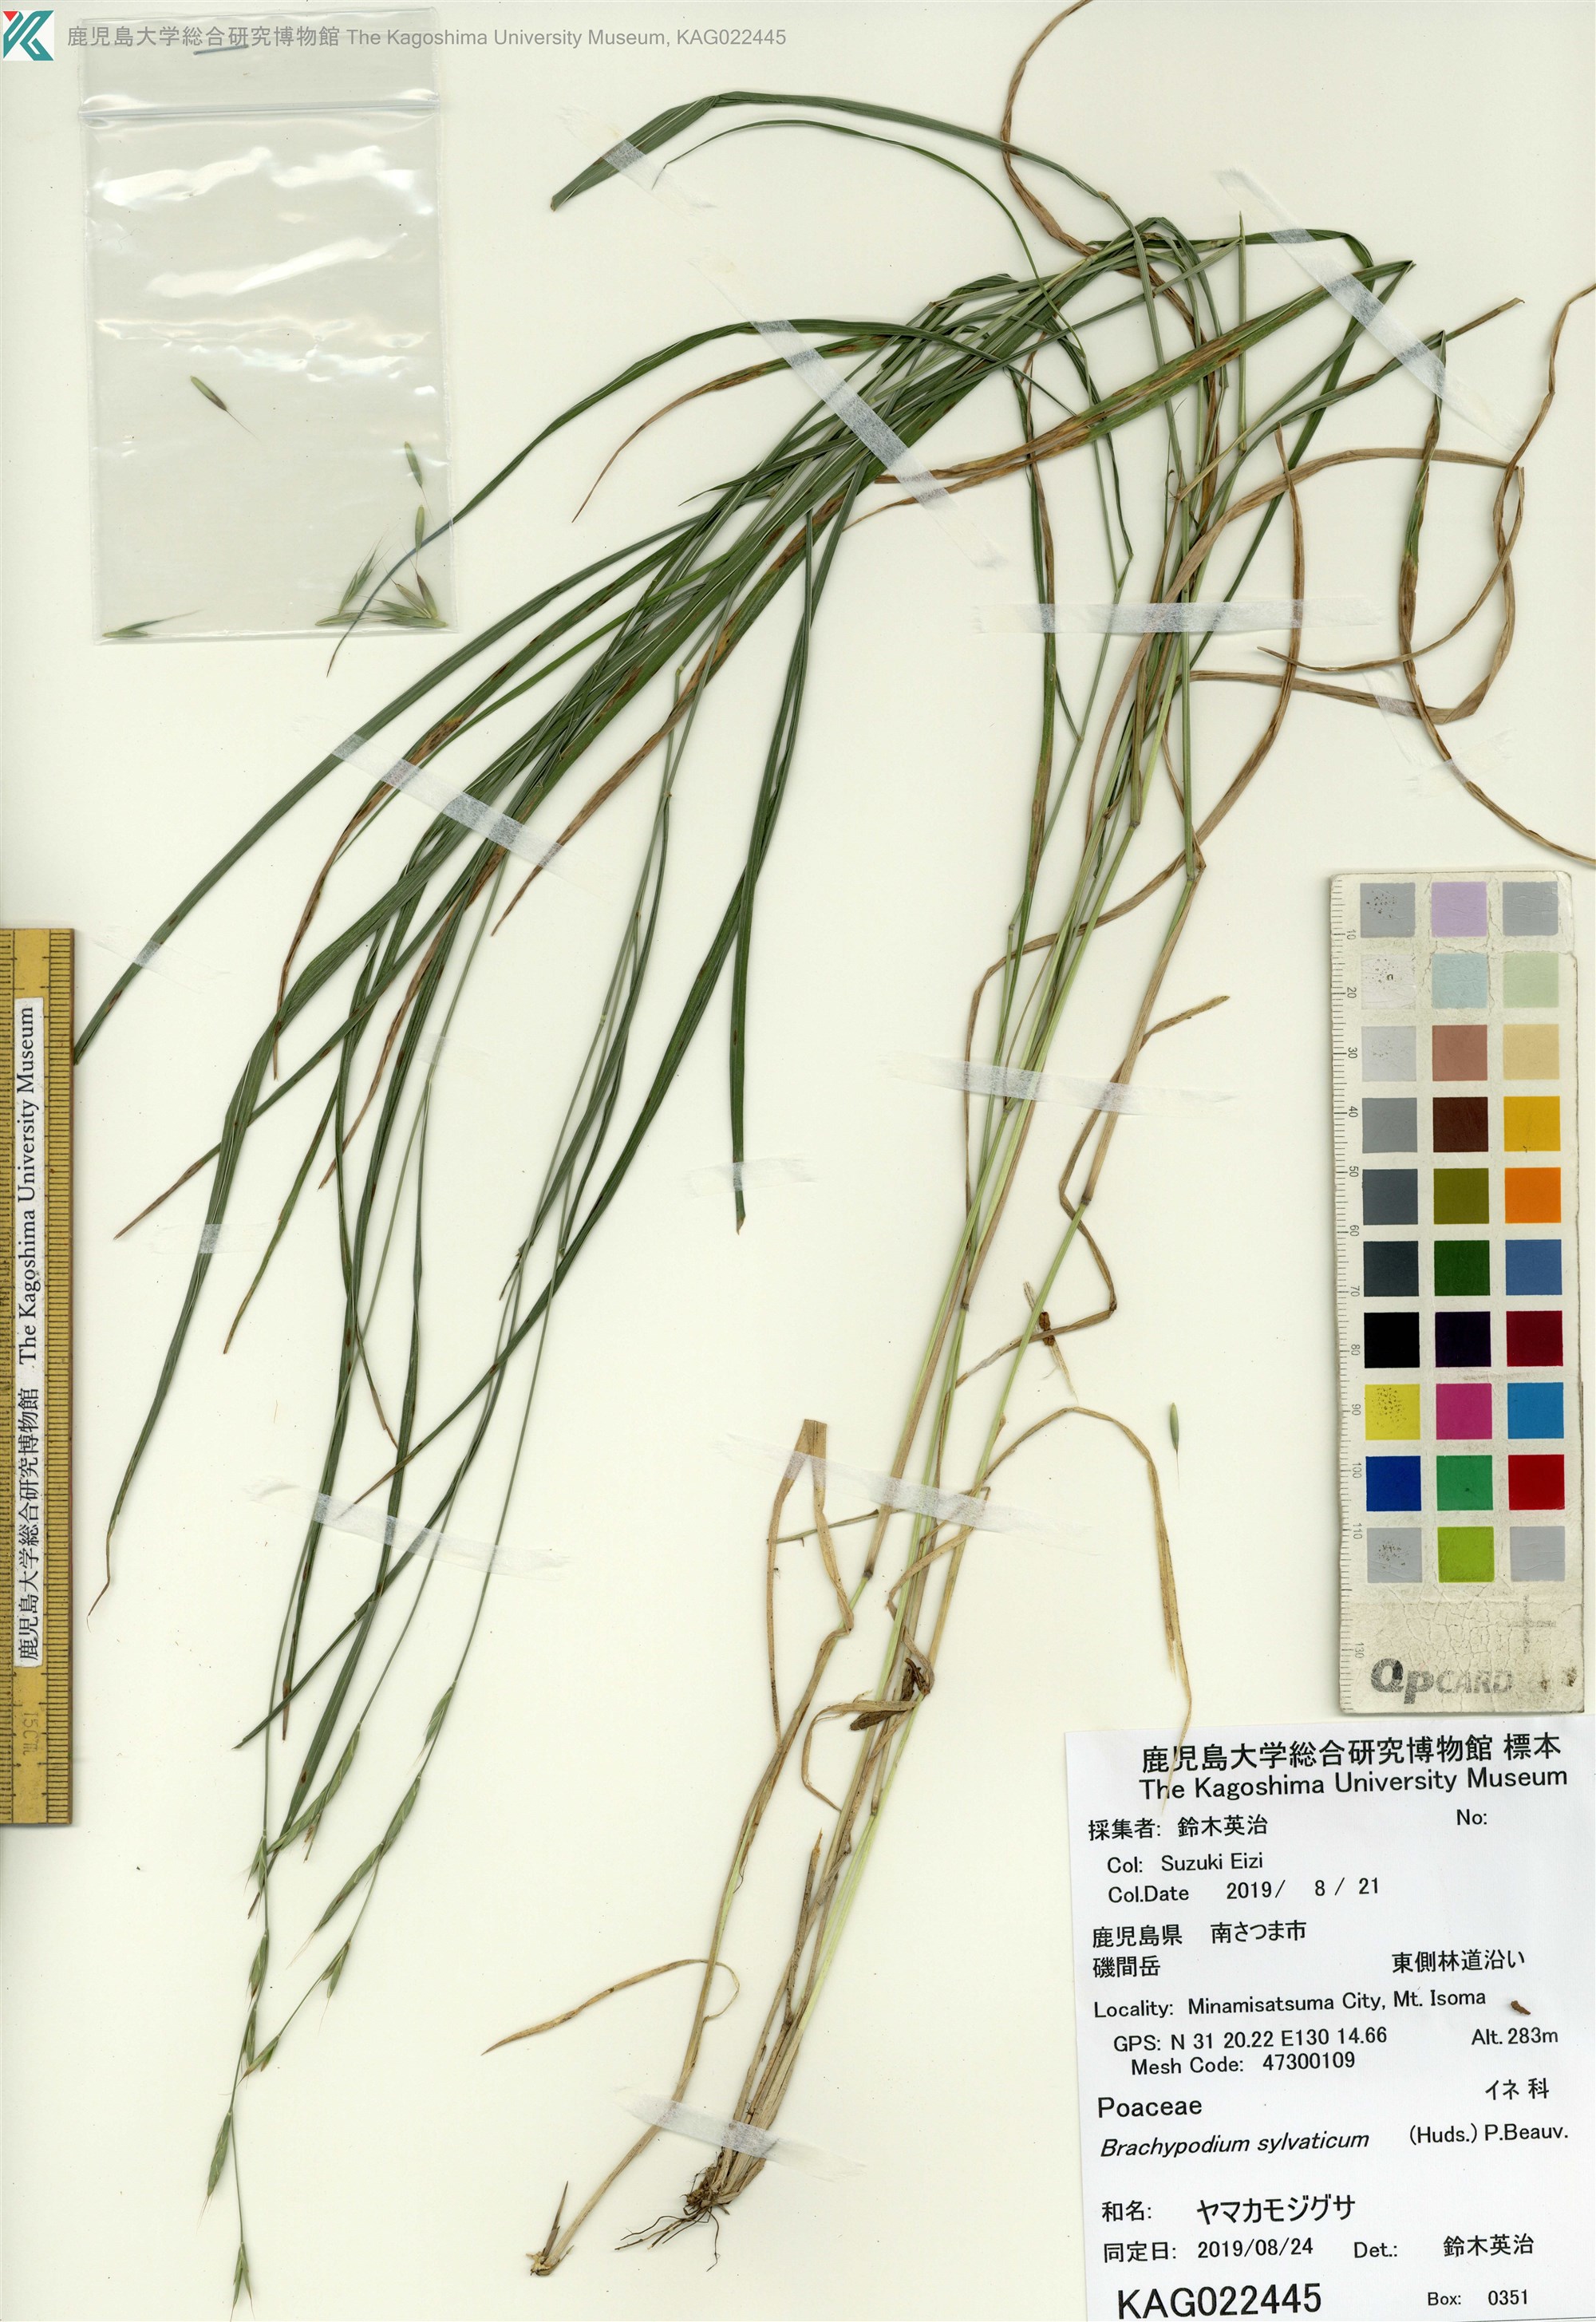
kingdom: Plantae
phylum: Tracheophyta
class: Liliopsida
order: Poales
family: Poaceae
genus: Brachypodium
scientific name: Brachypodium sylvaticum
